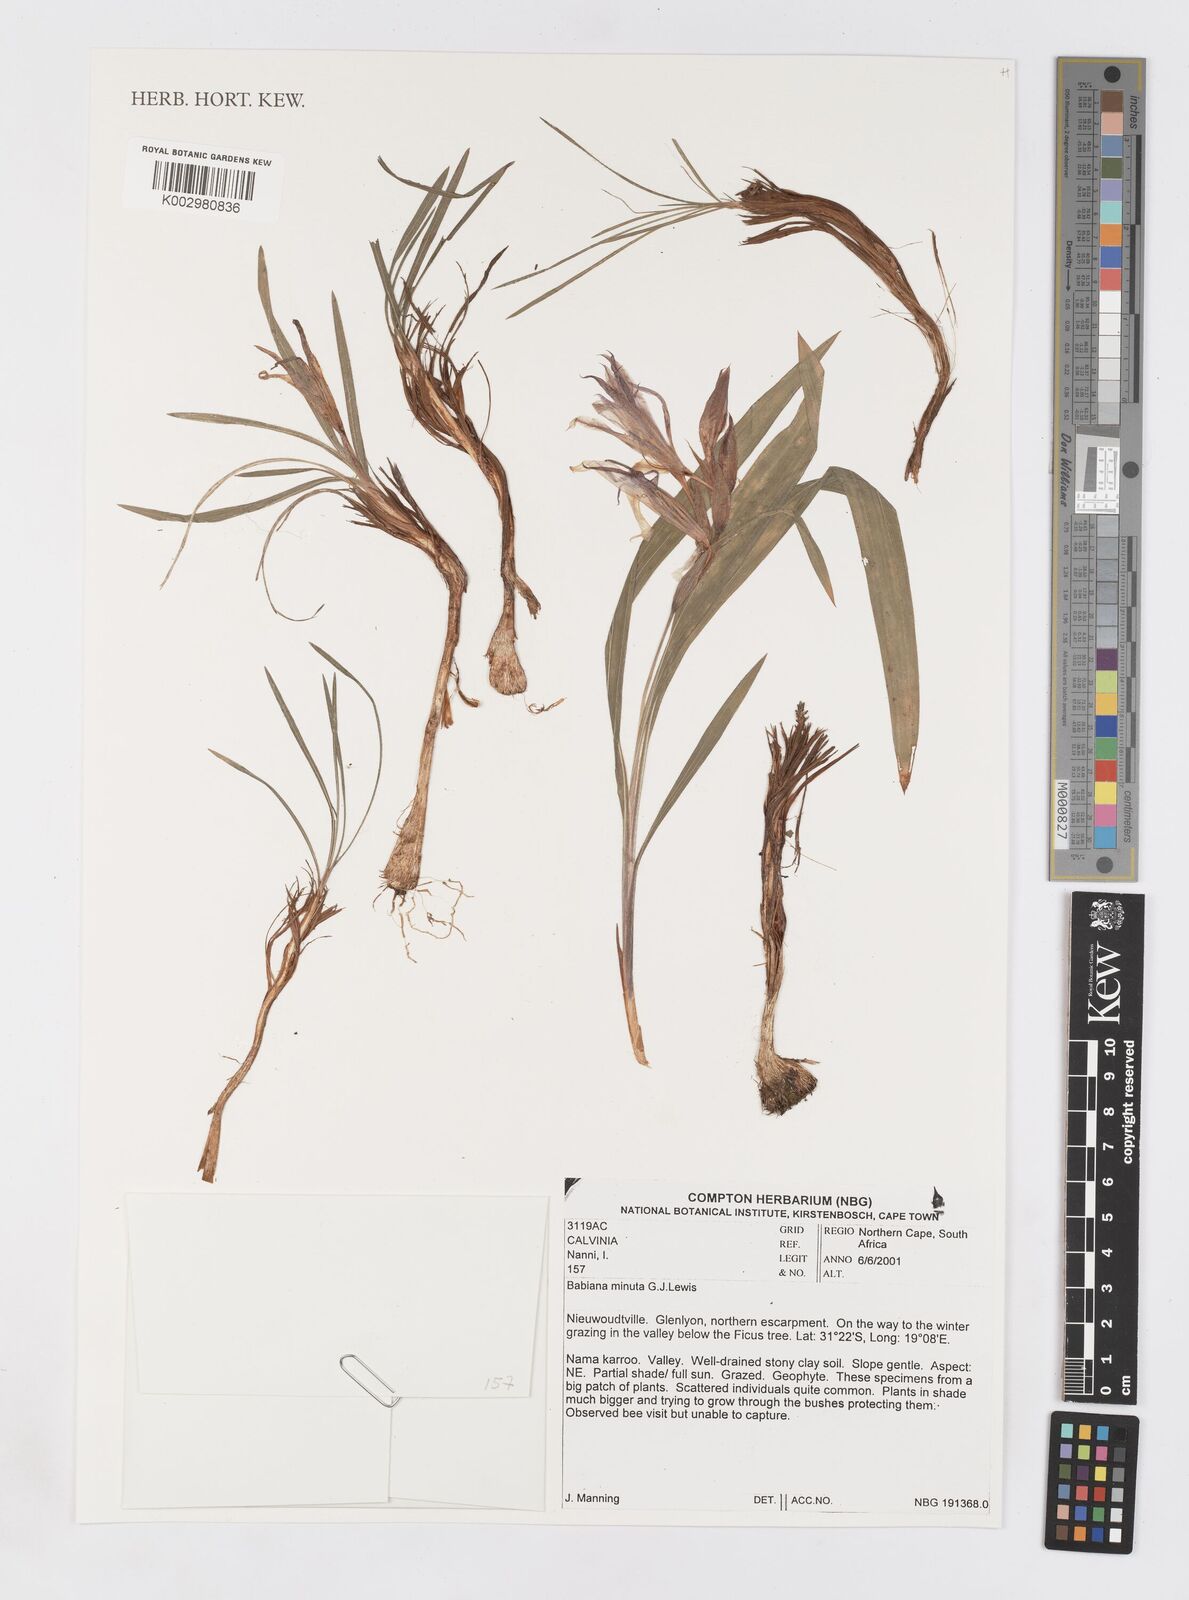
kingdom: Plantae
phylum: Tracheophyta
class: Liliopsida
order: Asparagales
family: Iridaceae
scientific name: Iridaceae
